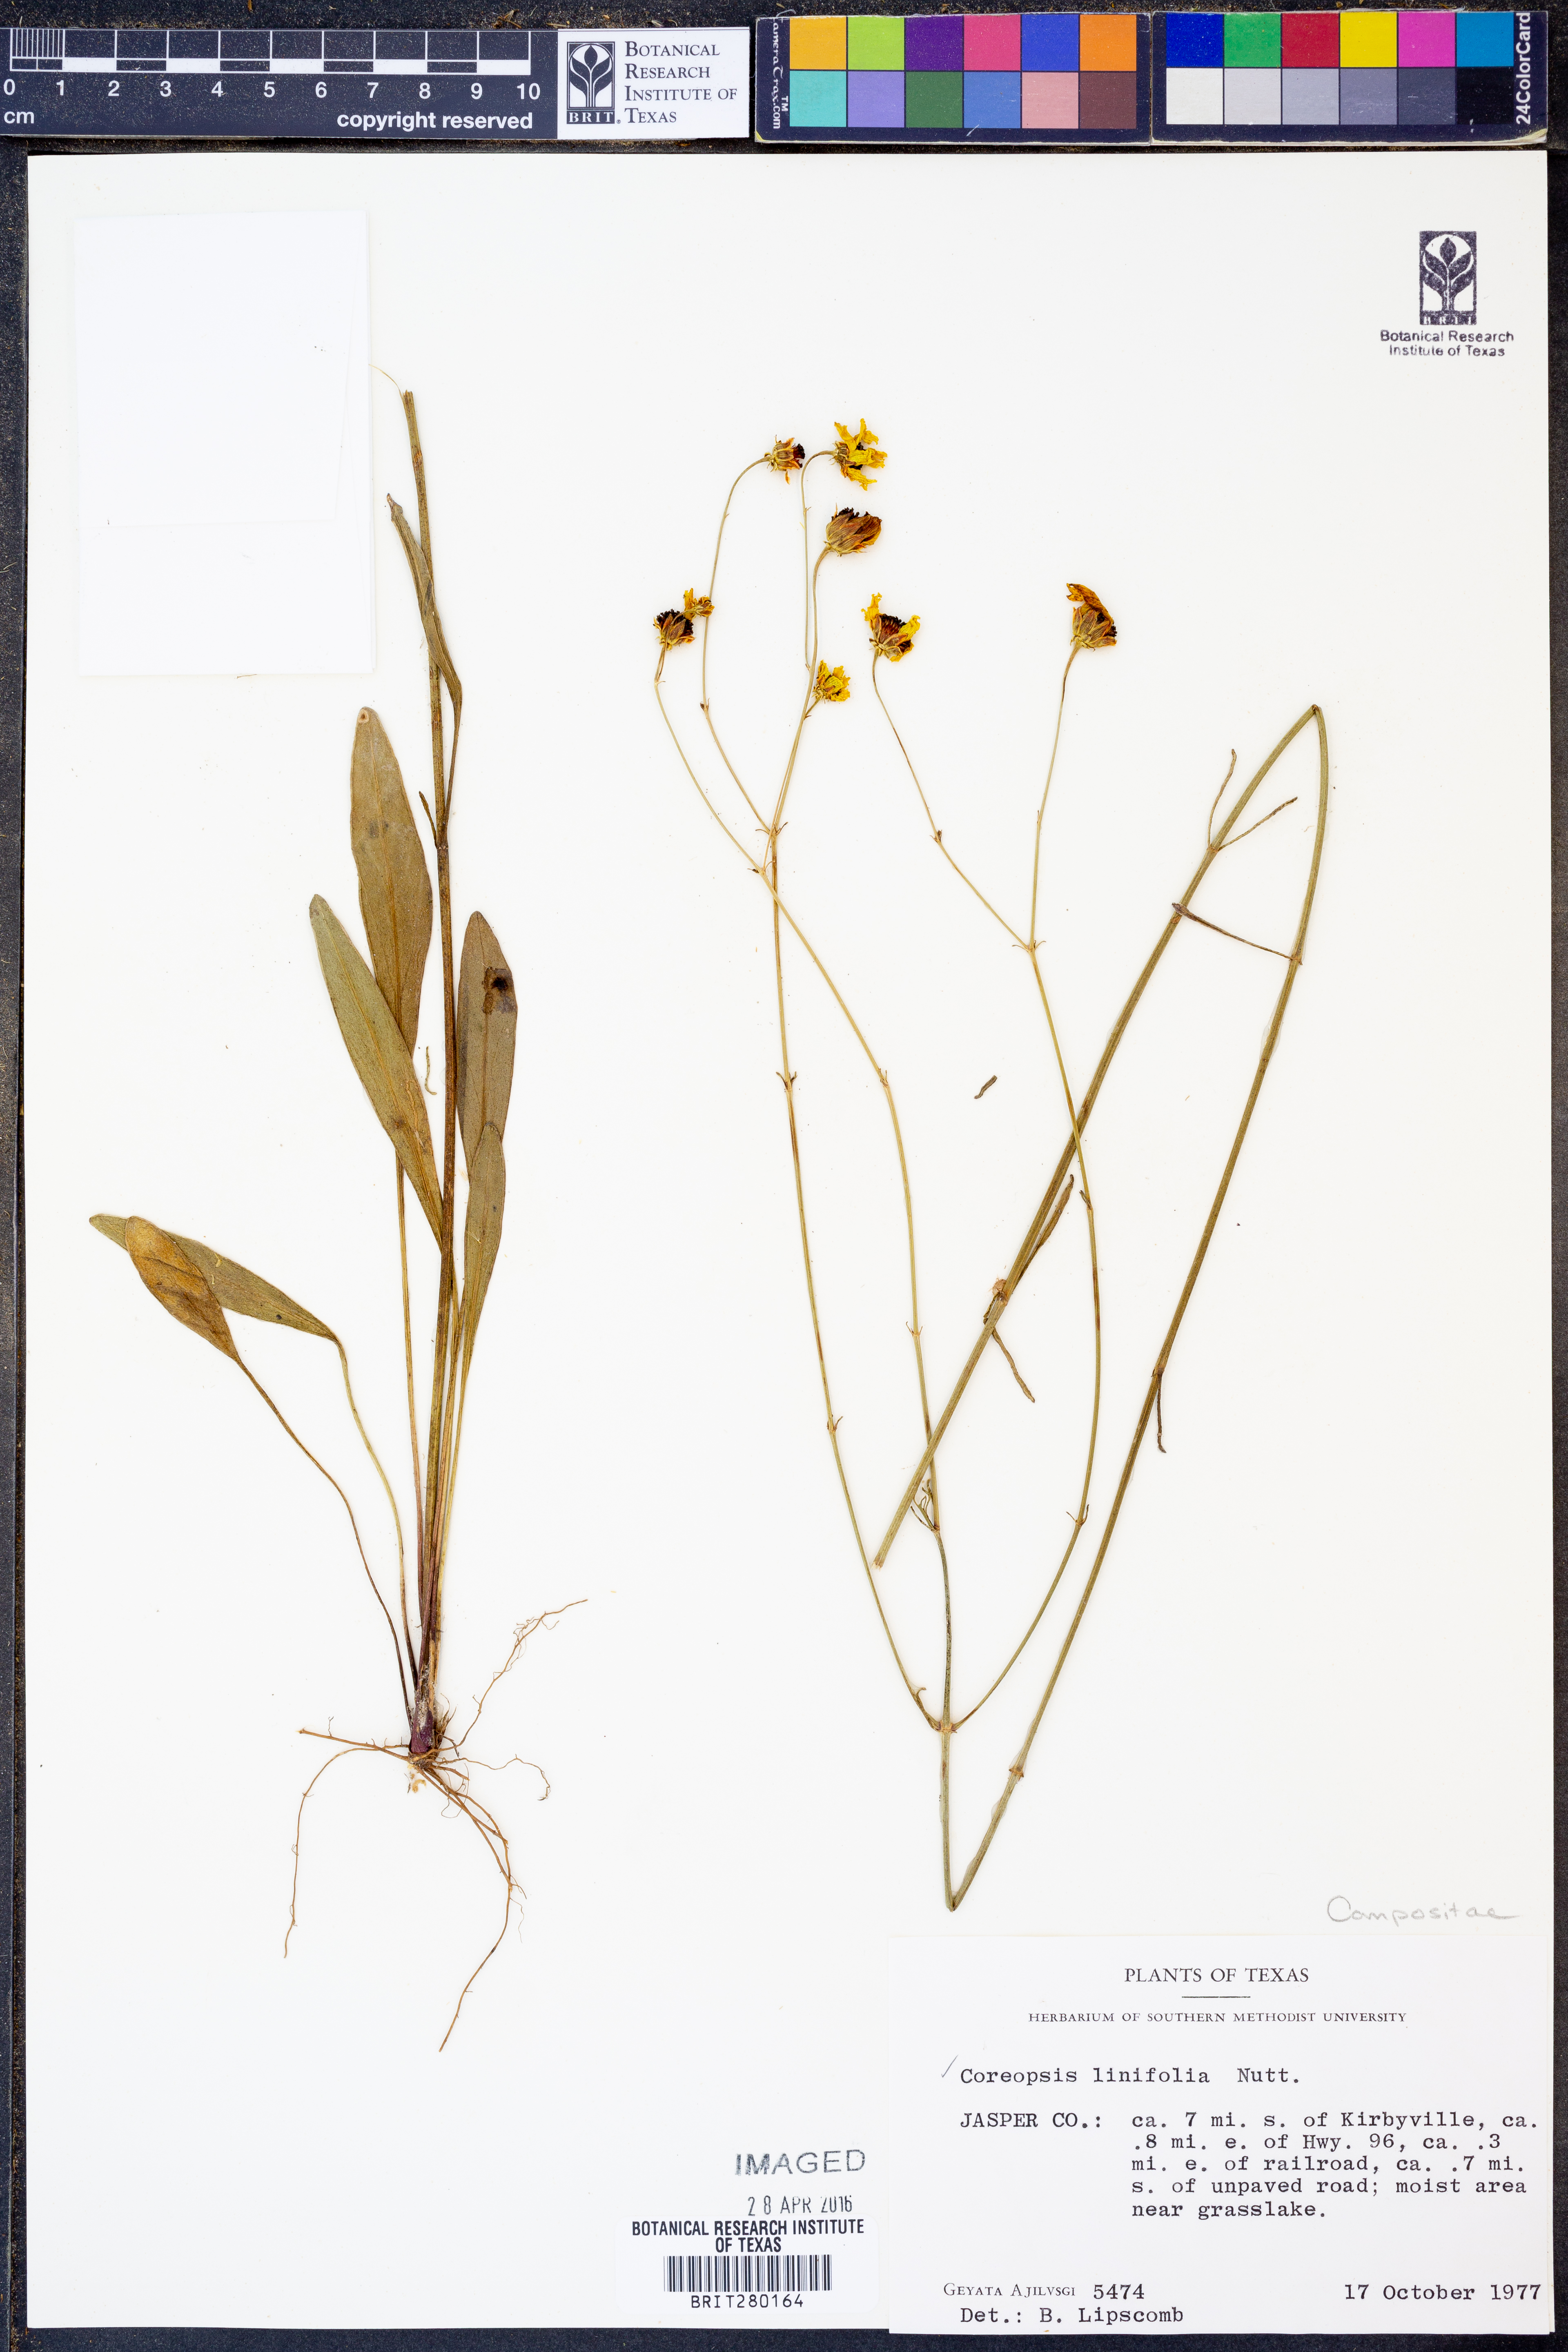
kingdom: Plantae
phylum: Tracheophyta
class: Magnoliopsida
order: Asterales
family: Asteraceae
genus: Coreopsis
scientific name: Coreopsis gladiata
